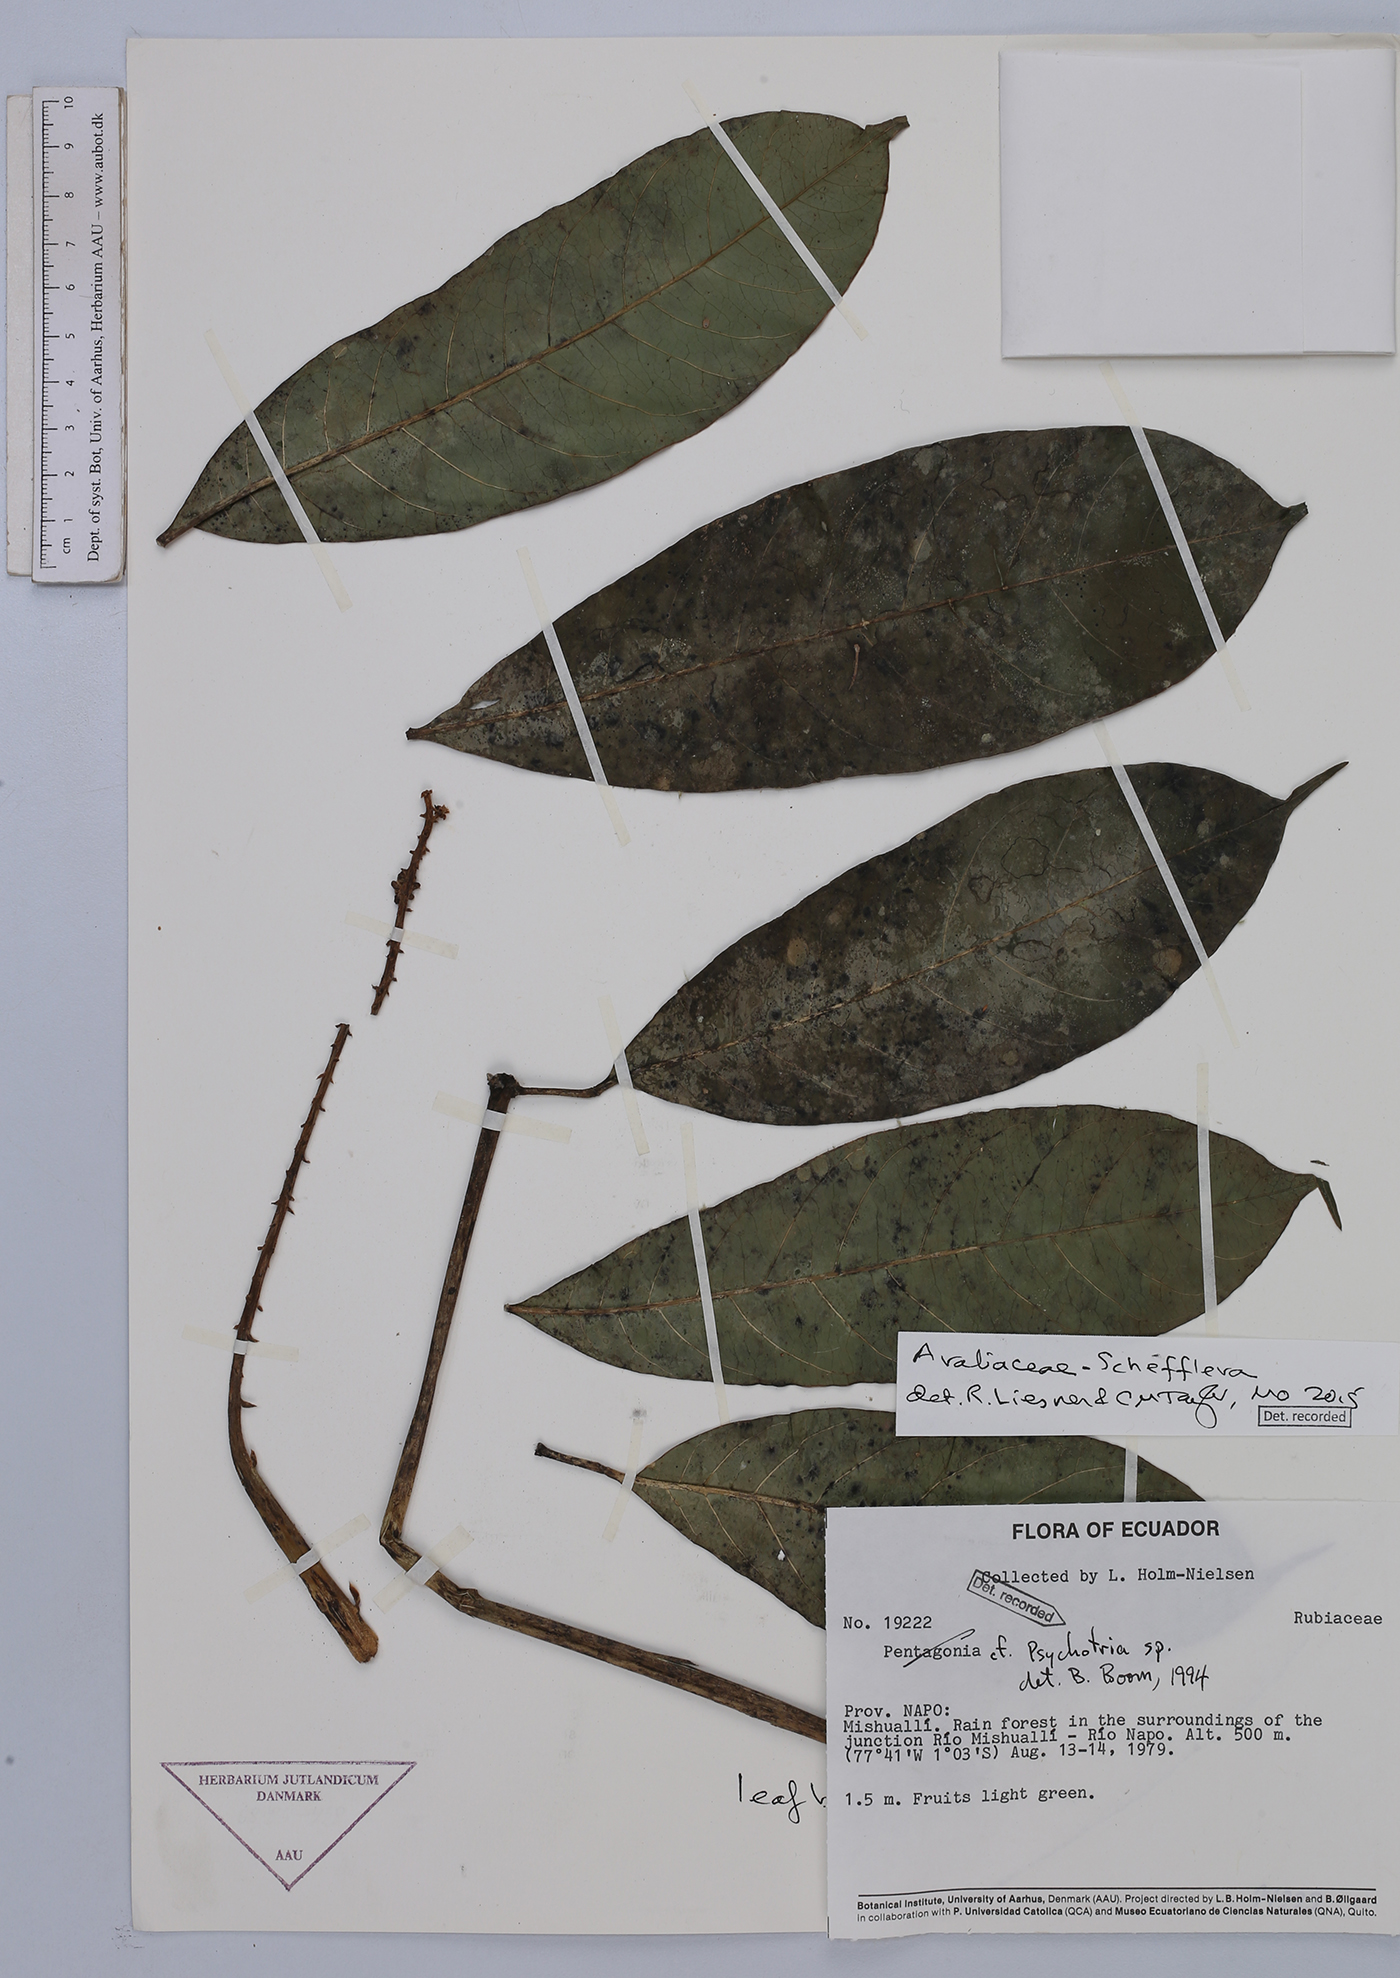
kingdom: Plantae
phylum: Tracheophyta
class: Magnoliopsida
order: Apiales
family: Araliaceae
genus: Sciodaphyllum
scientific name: Sciodaphyllum sprucei
